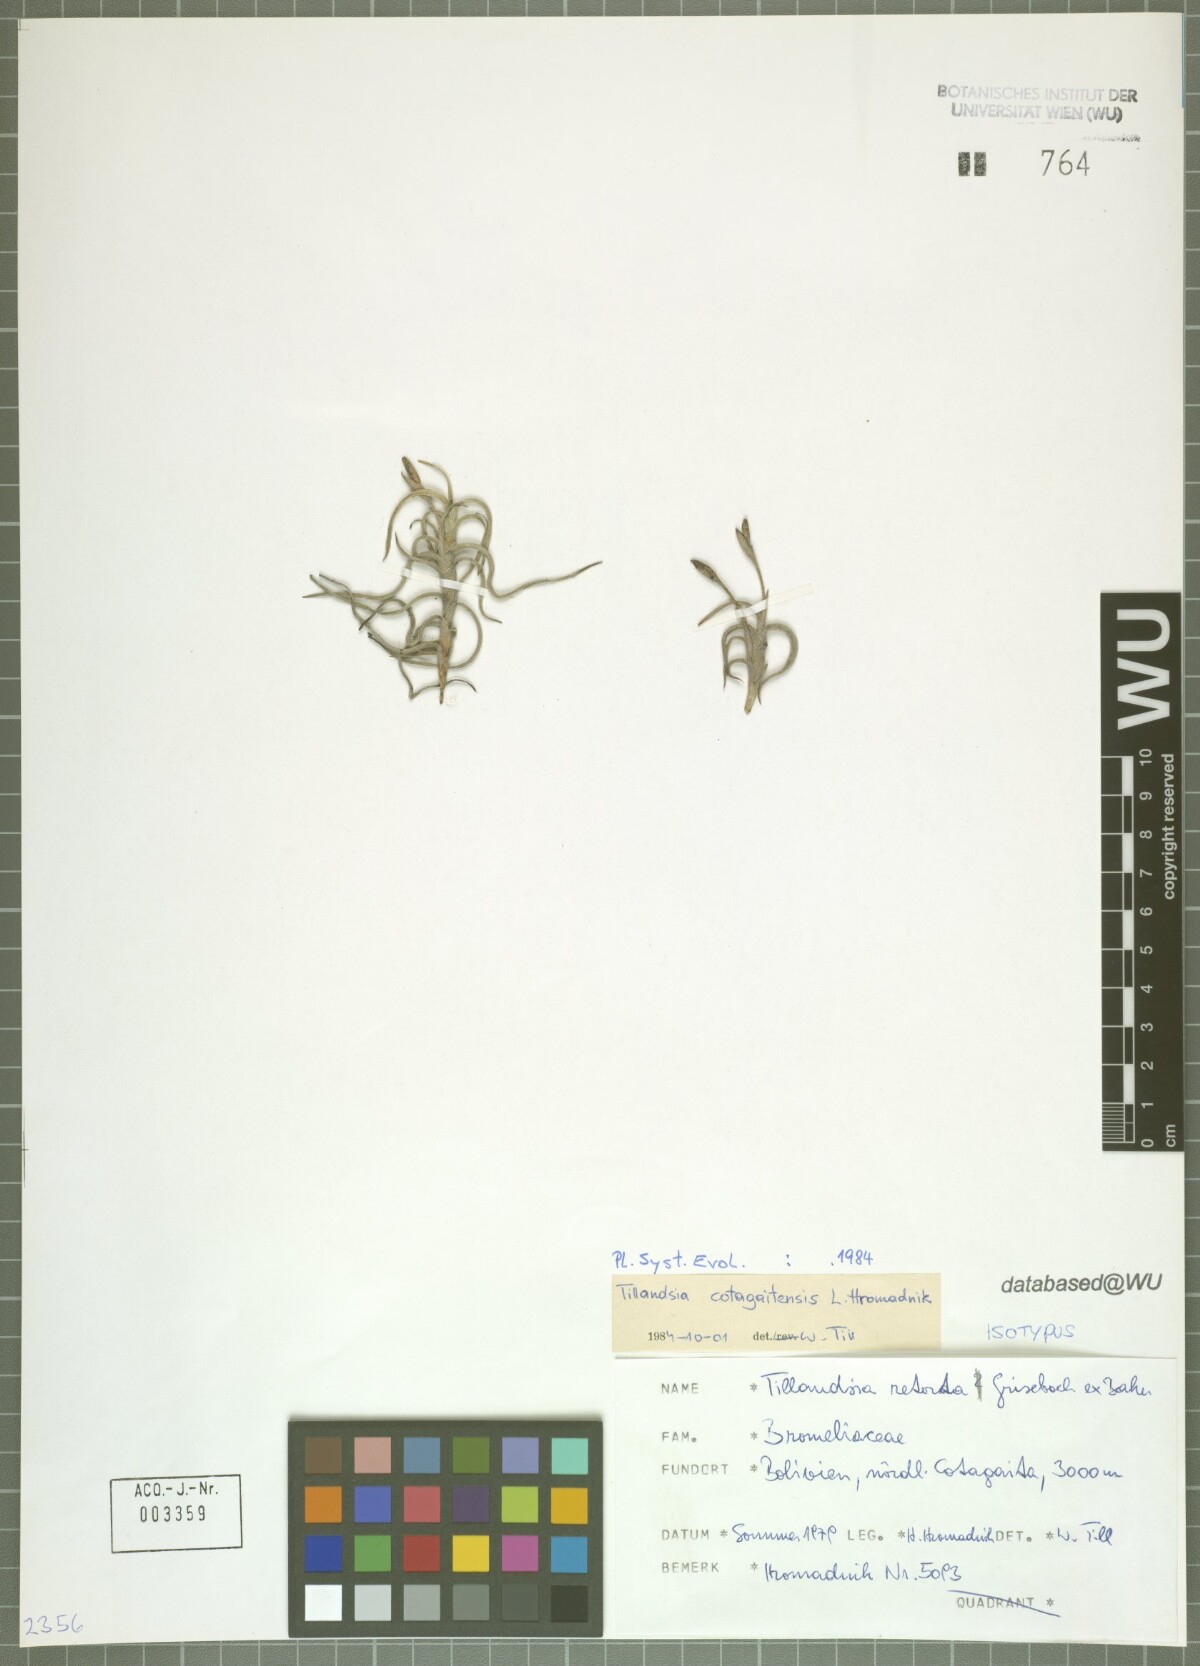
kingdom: Plantae
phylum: Tracheophyta
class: Liliopsida
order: Poales
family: Bromeliaceae
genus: Tillandsia
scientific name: Tillandsia cotagaitensis
